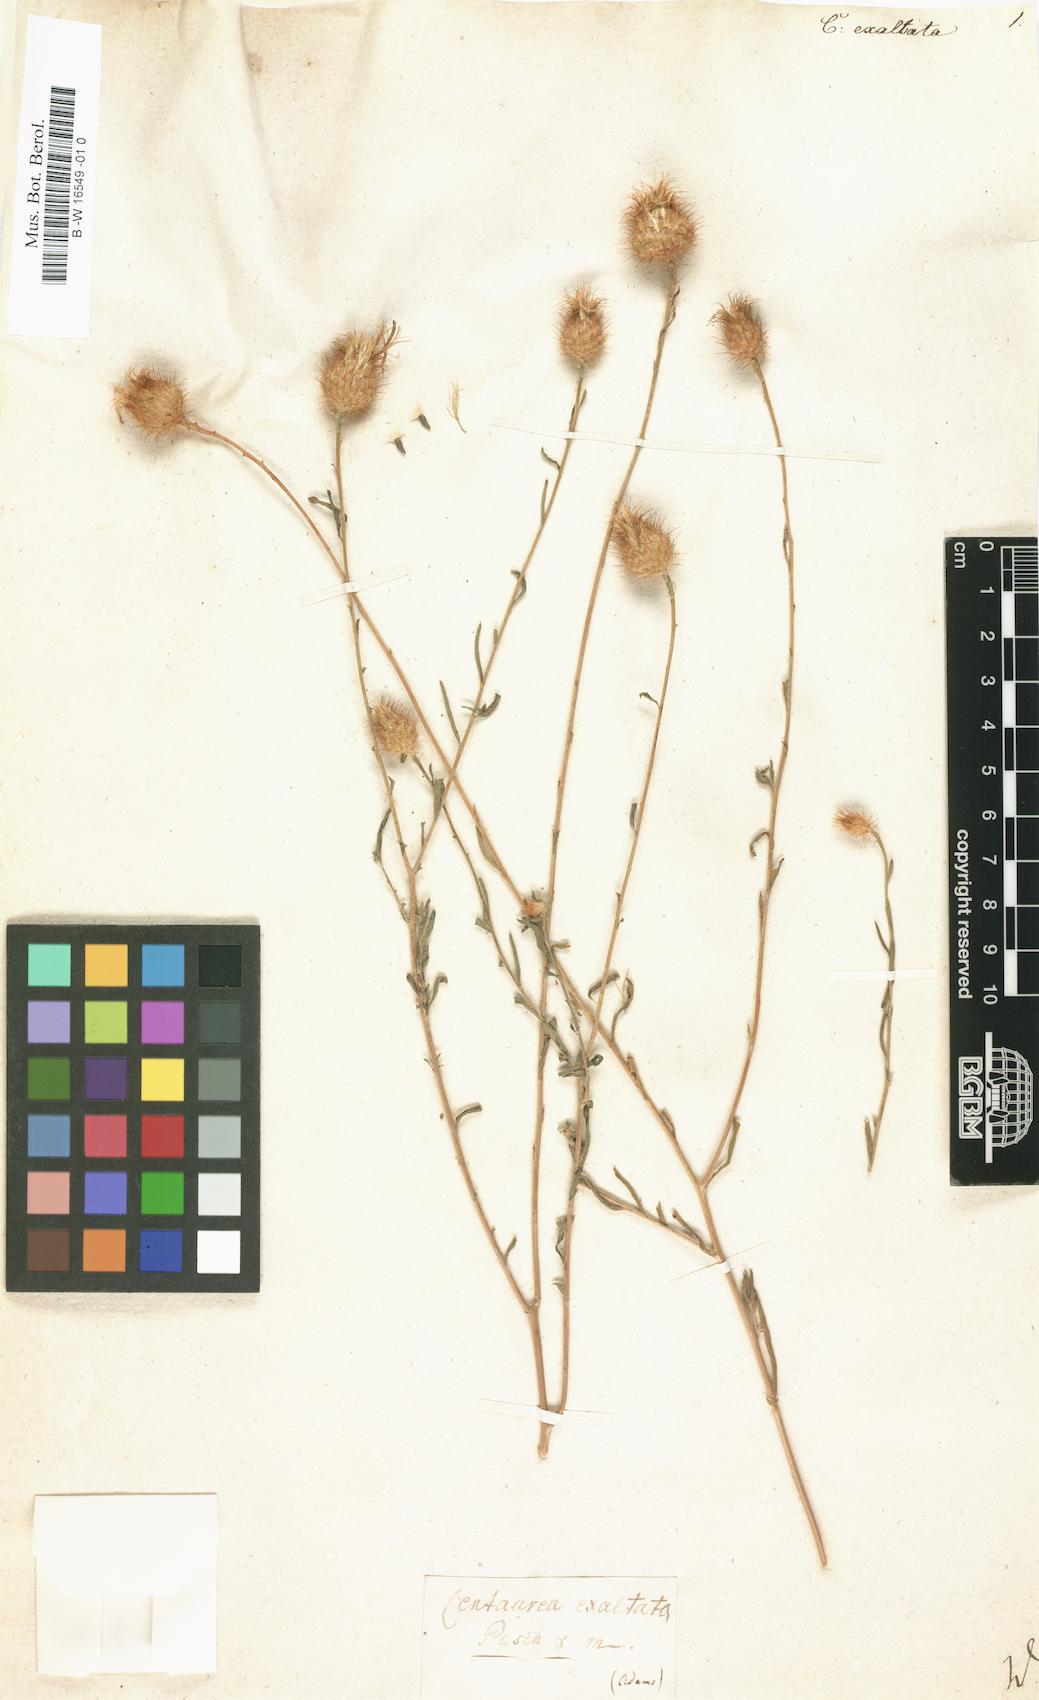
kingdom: Plantae
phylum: Tracheophyta
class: Magnoliopsida
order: Asterales
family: Asteraceae
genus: Stizolophus
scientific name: Stizolophus coronopifolius
